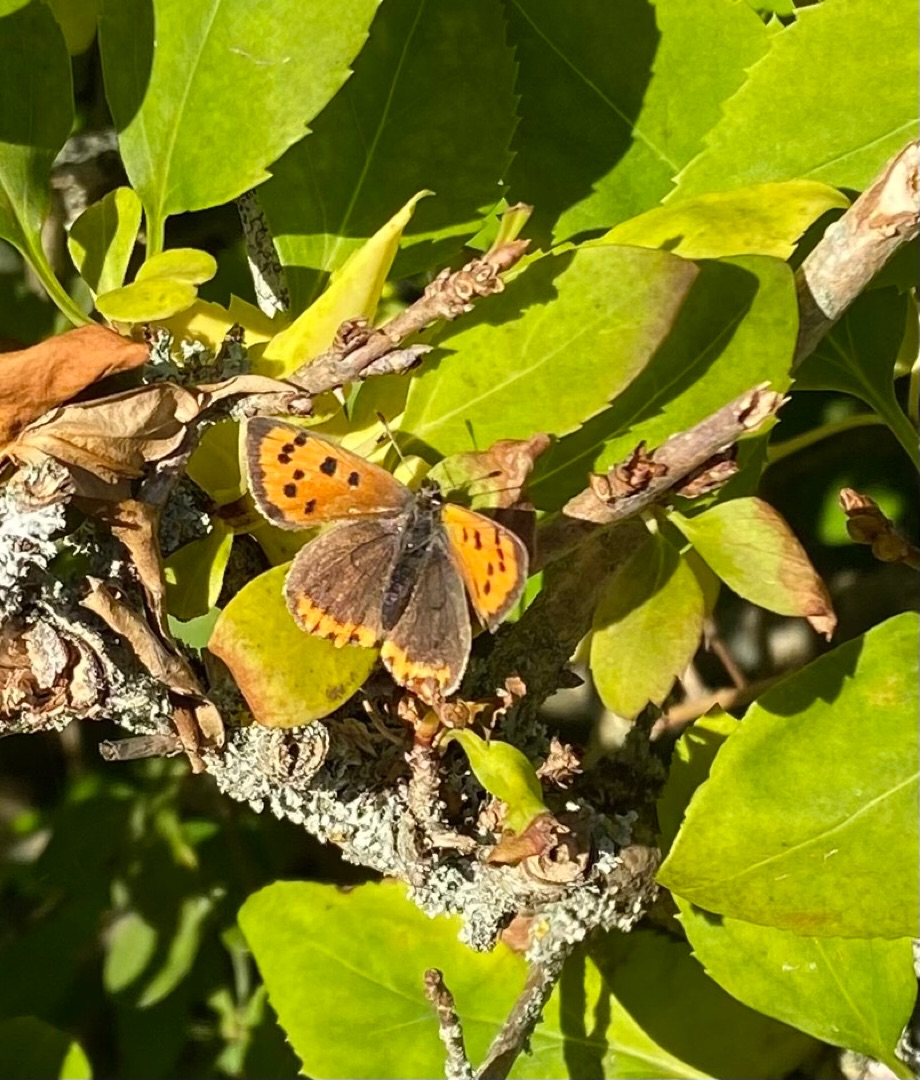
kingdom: Animalia
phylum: Arthropoda
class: Insecta
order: Lepidoptera
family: Lycaenidae
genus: Lycaena
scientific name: Lycaena phlaeas
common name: Lille ildfugl
